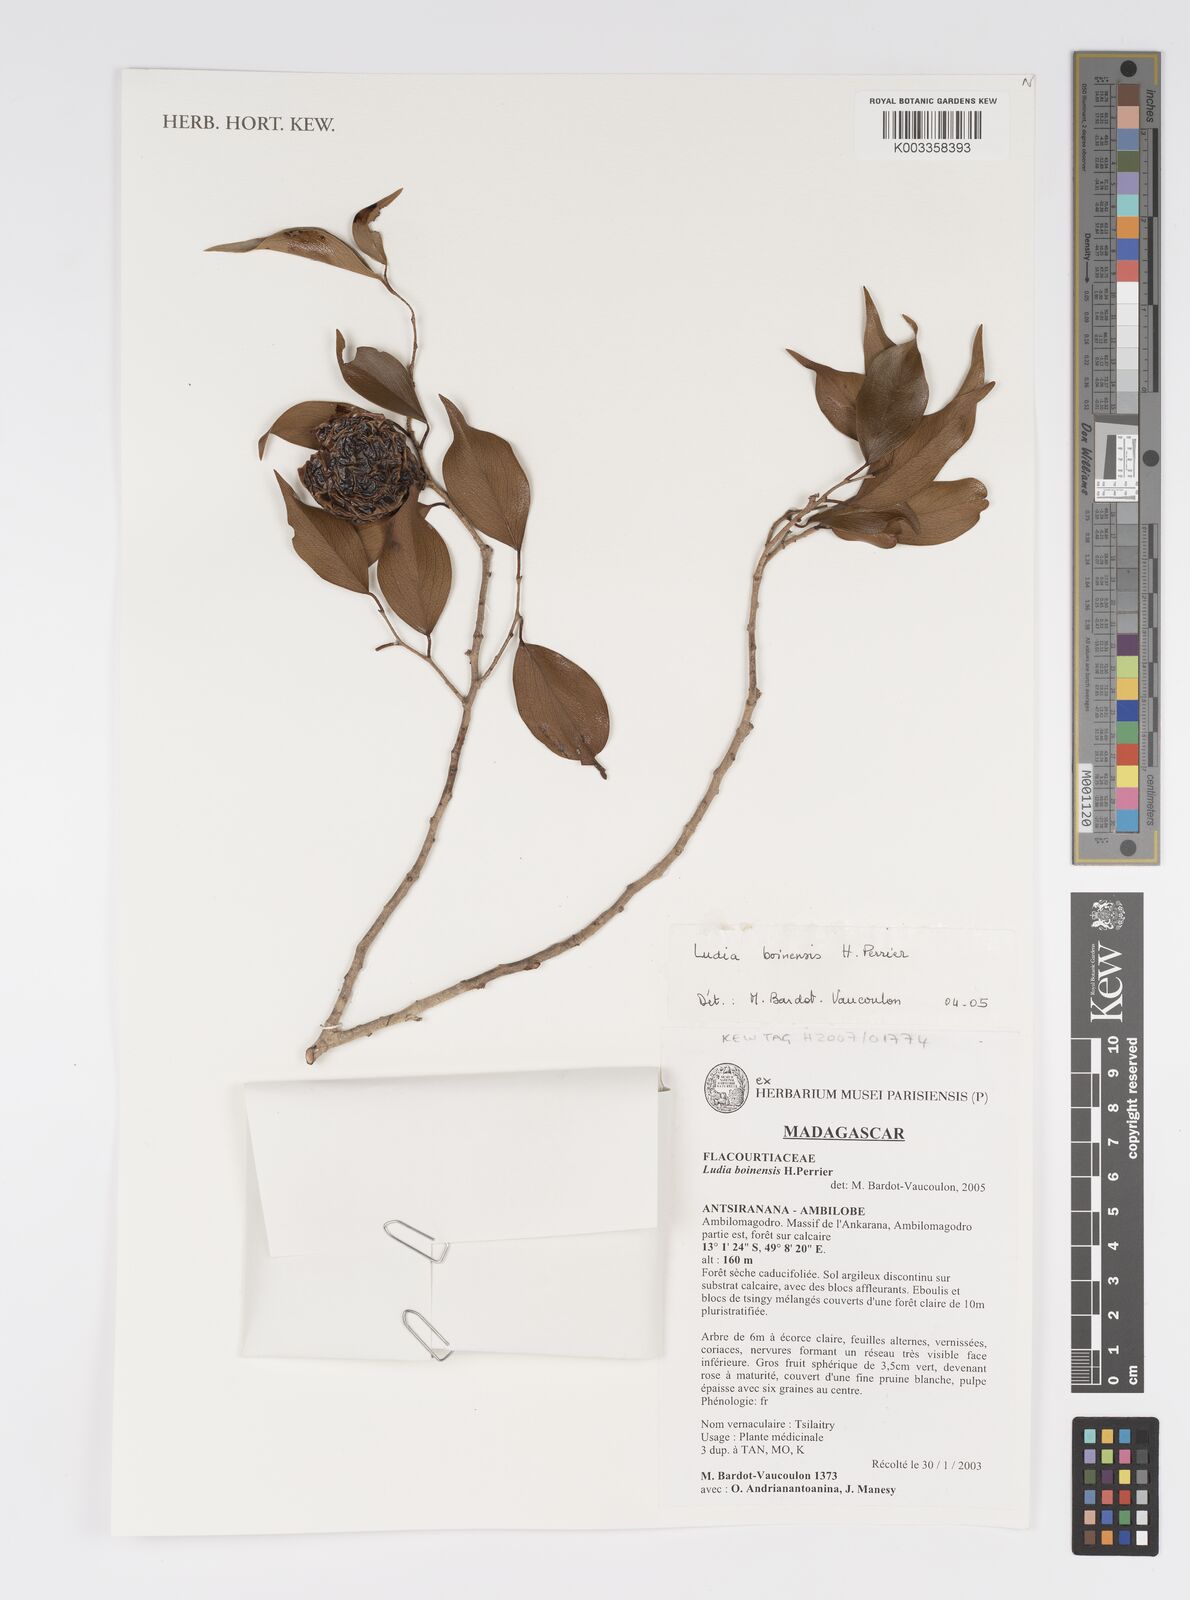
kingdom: Plantae
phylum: Tracheophyta
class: Magnoliopsida
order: Malpighiales
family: Salicaceae
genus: Ludia
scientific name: Ludia boinensis
